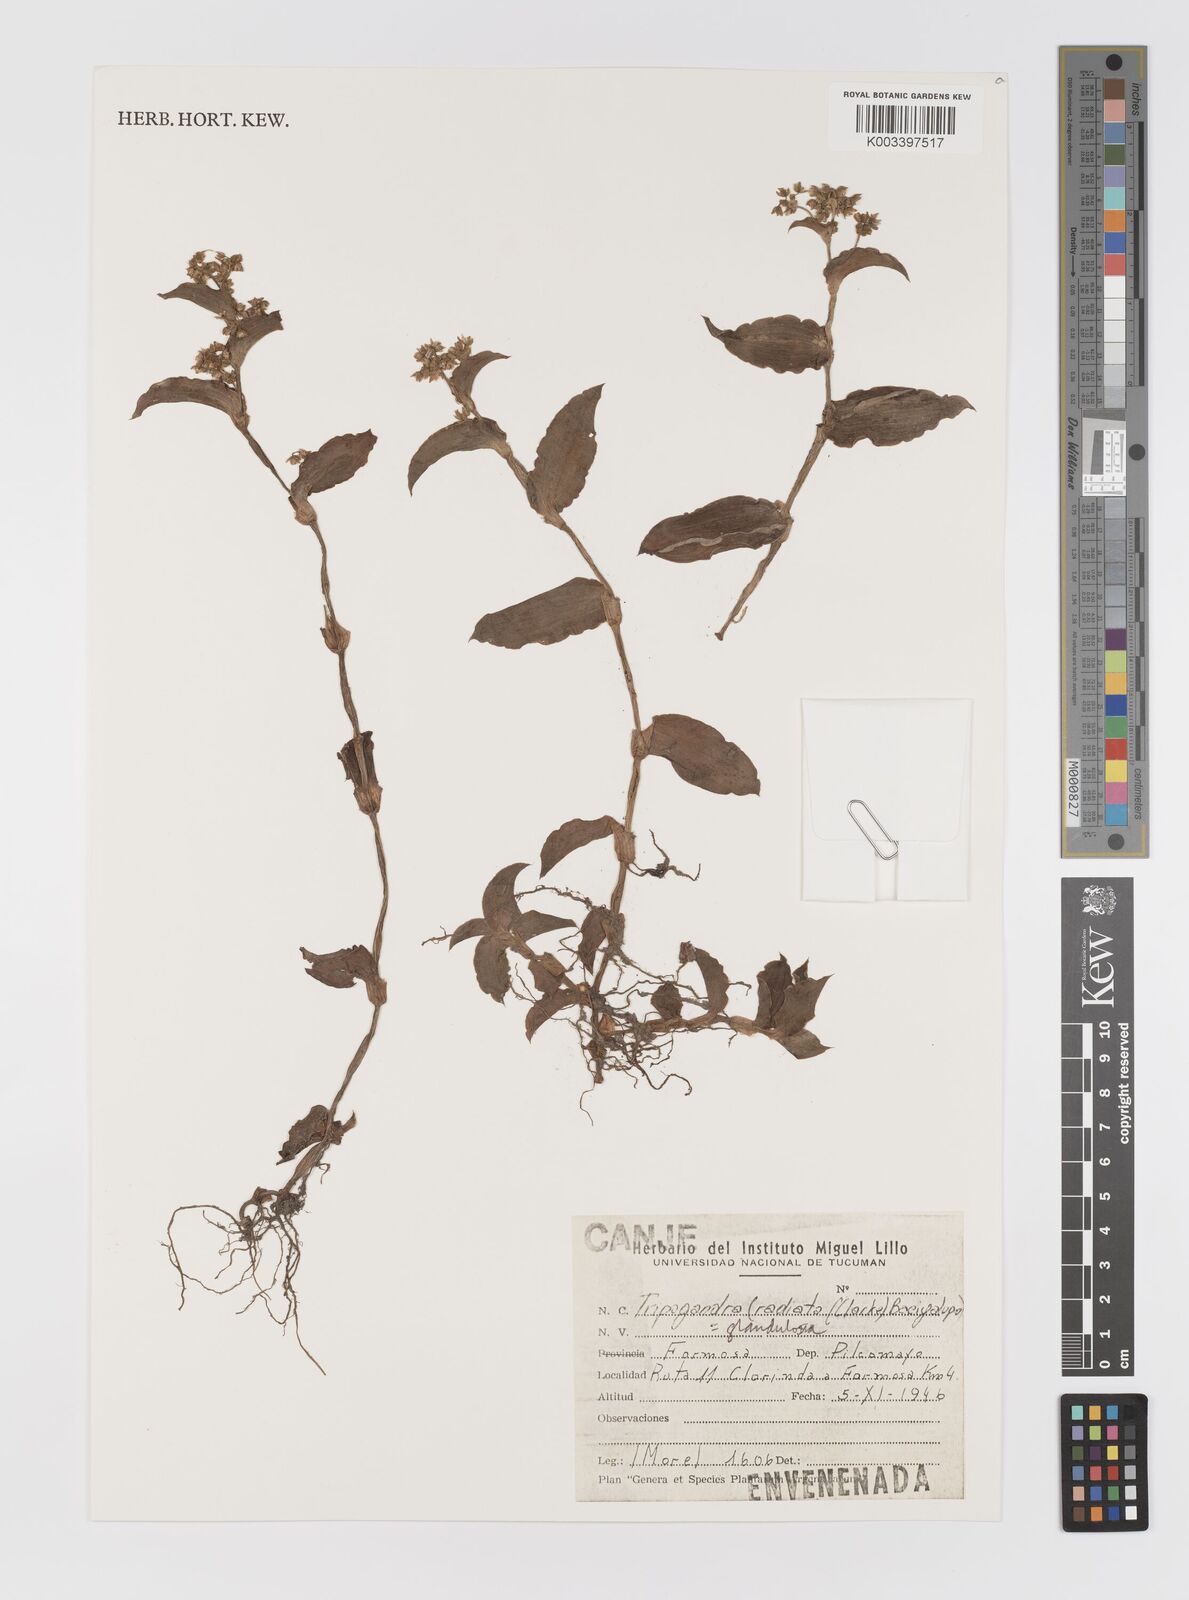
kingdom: Plantae
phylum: Tracheophyta
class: Liliopsida
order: Commelinales
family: Commelinaceae
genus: Callisia
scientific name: Callisia glandulosa
